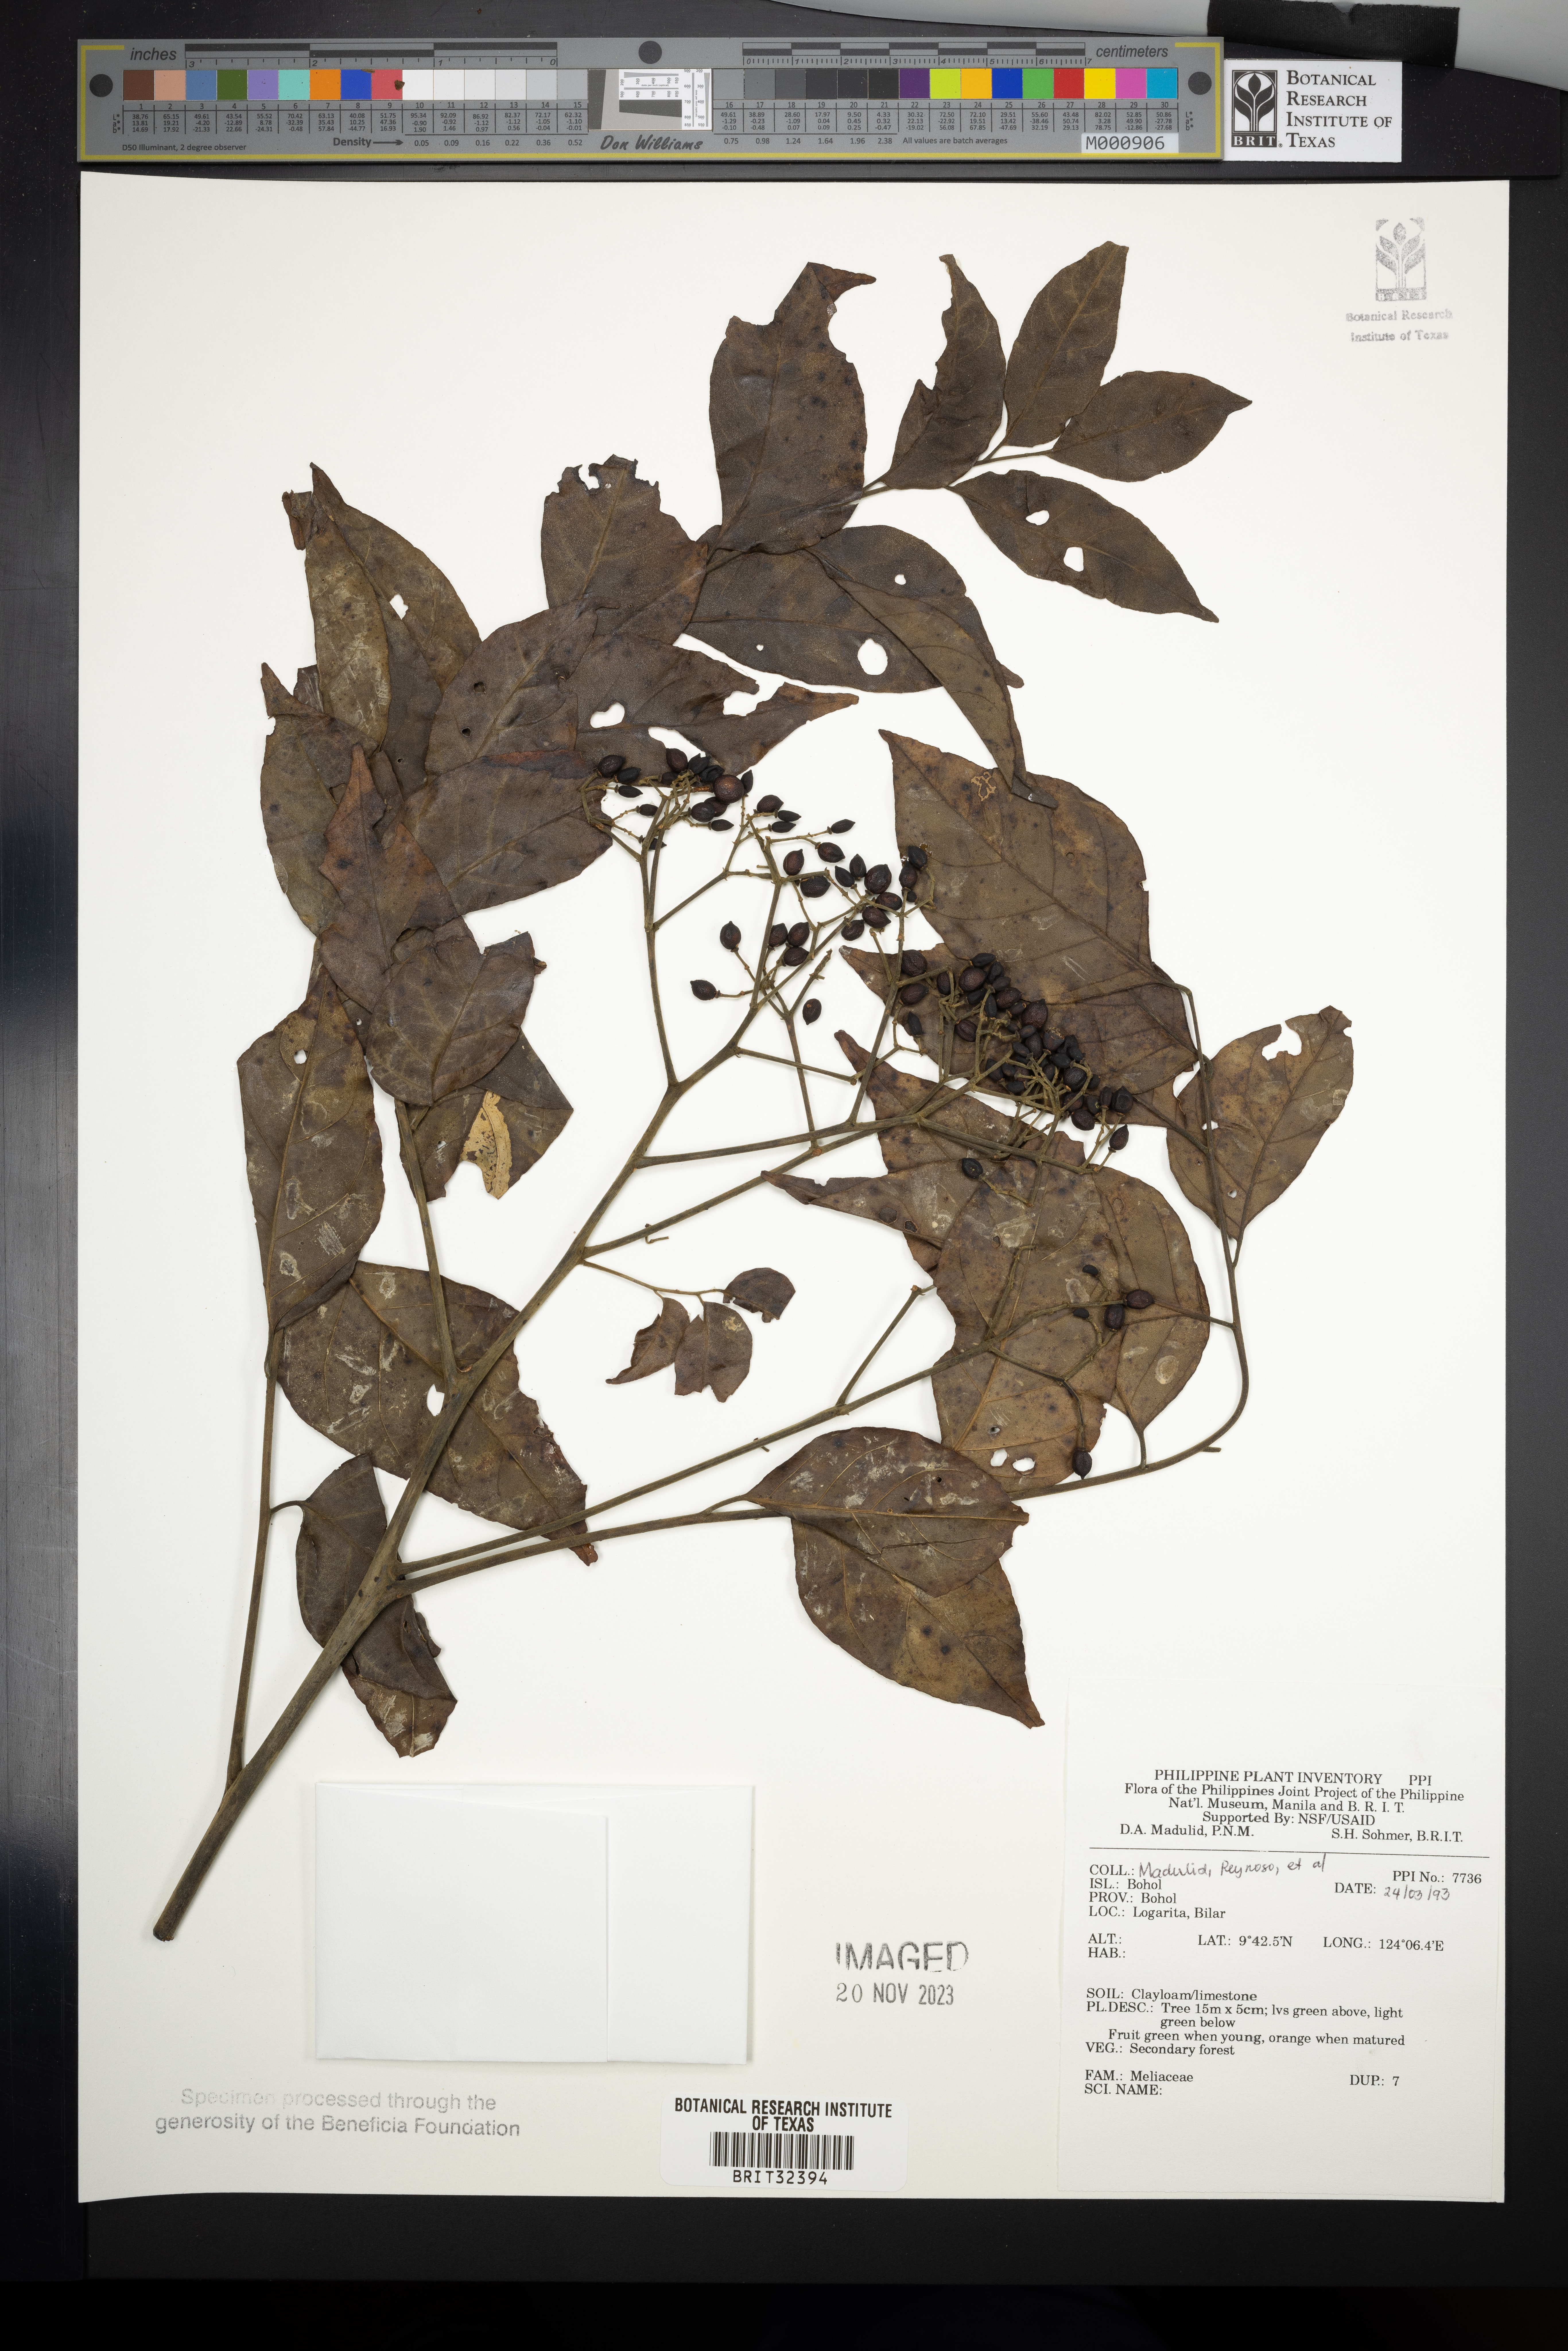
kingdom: Plantae
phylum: Tracheophyta
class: Magnoliopsida
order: Sapindales
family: Meliaceae
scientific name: Meliaceae
